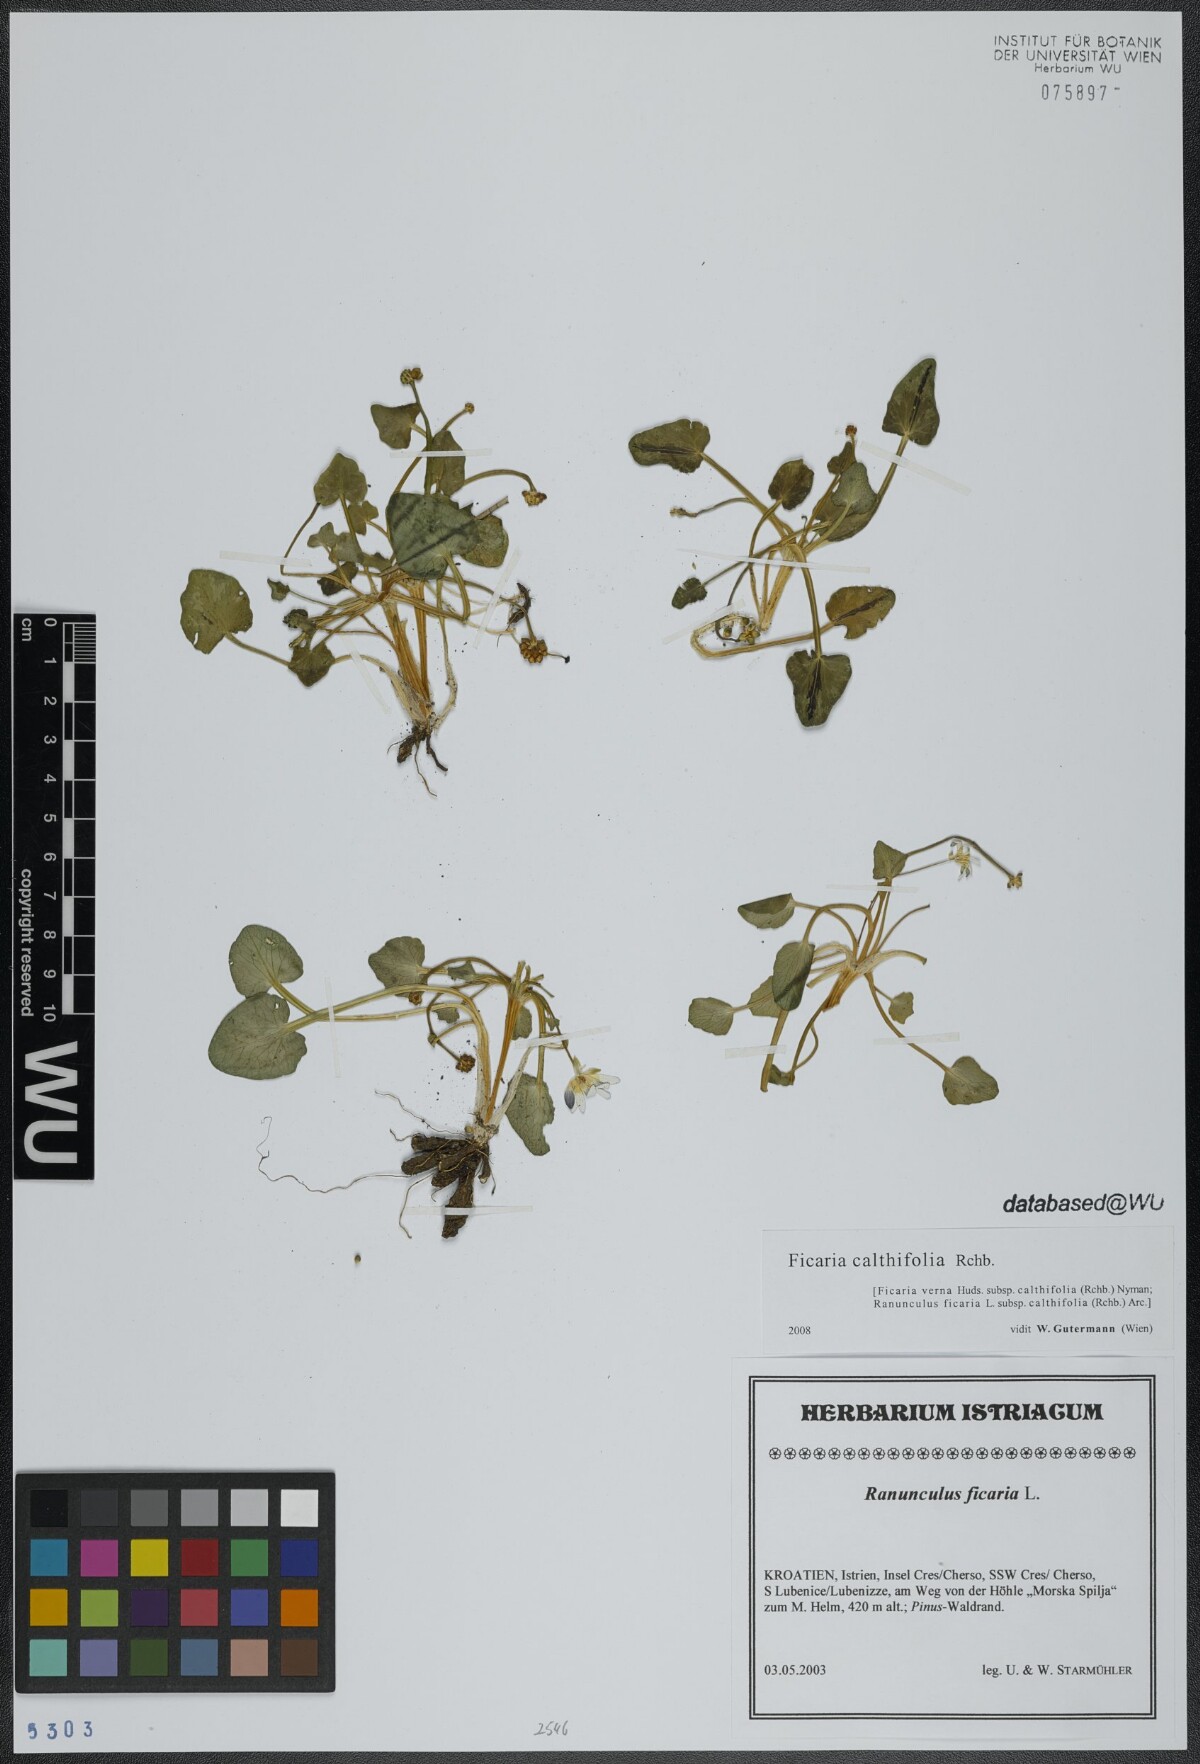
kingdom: Plantae
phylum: Tracheophyta
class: Magnoliopsida
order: Ranunculales
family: Ranunculaceae
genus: Ficaria
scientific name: Ficaria calthifolia
